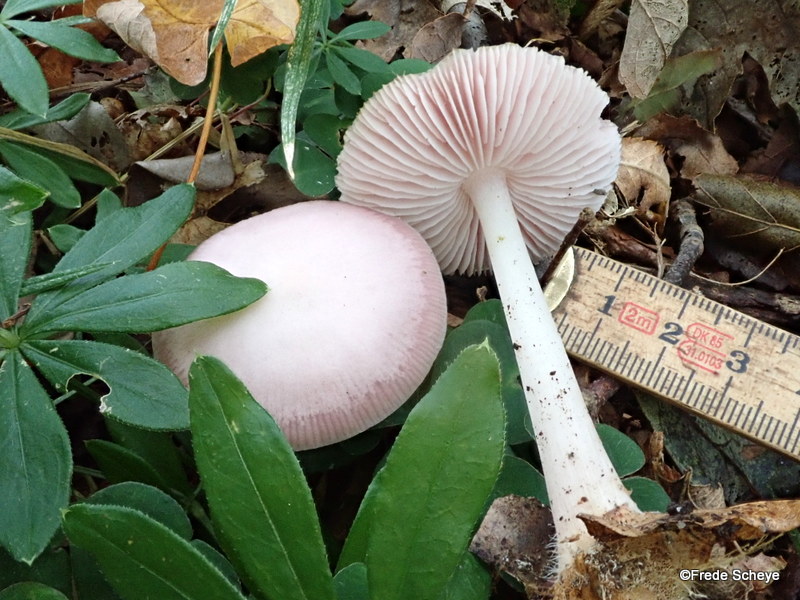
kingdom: Fungi
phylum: Basidiomycota
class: Agaricomycetes
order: Agaricales
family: Mycenaceae
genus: Mycena
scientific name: Mycena rosea
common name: rosa huesvamp
